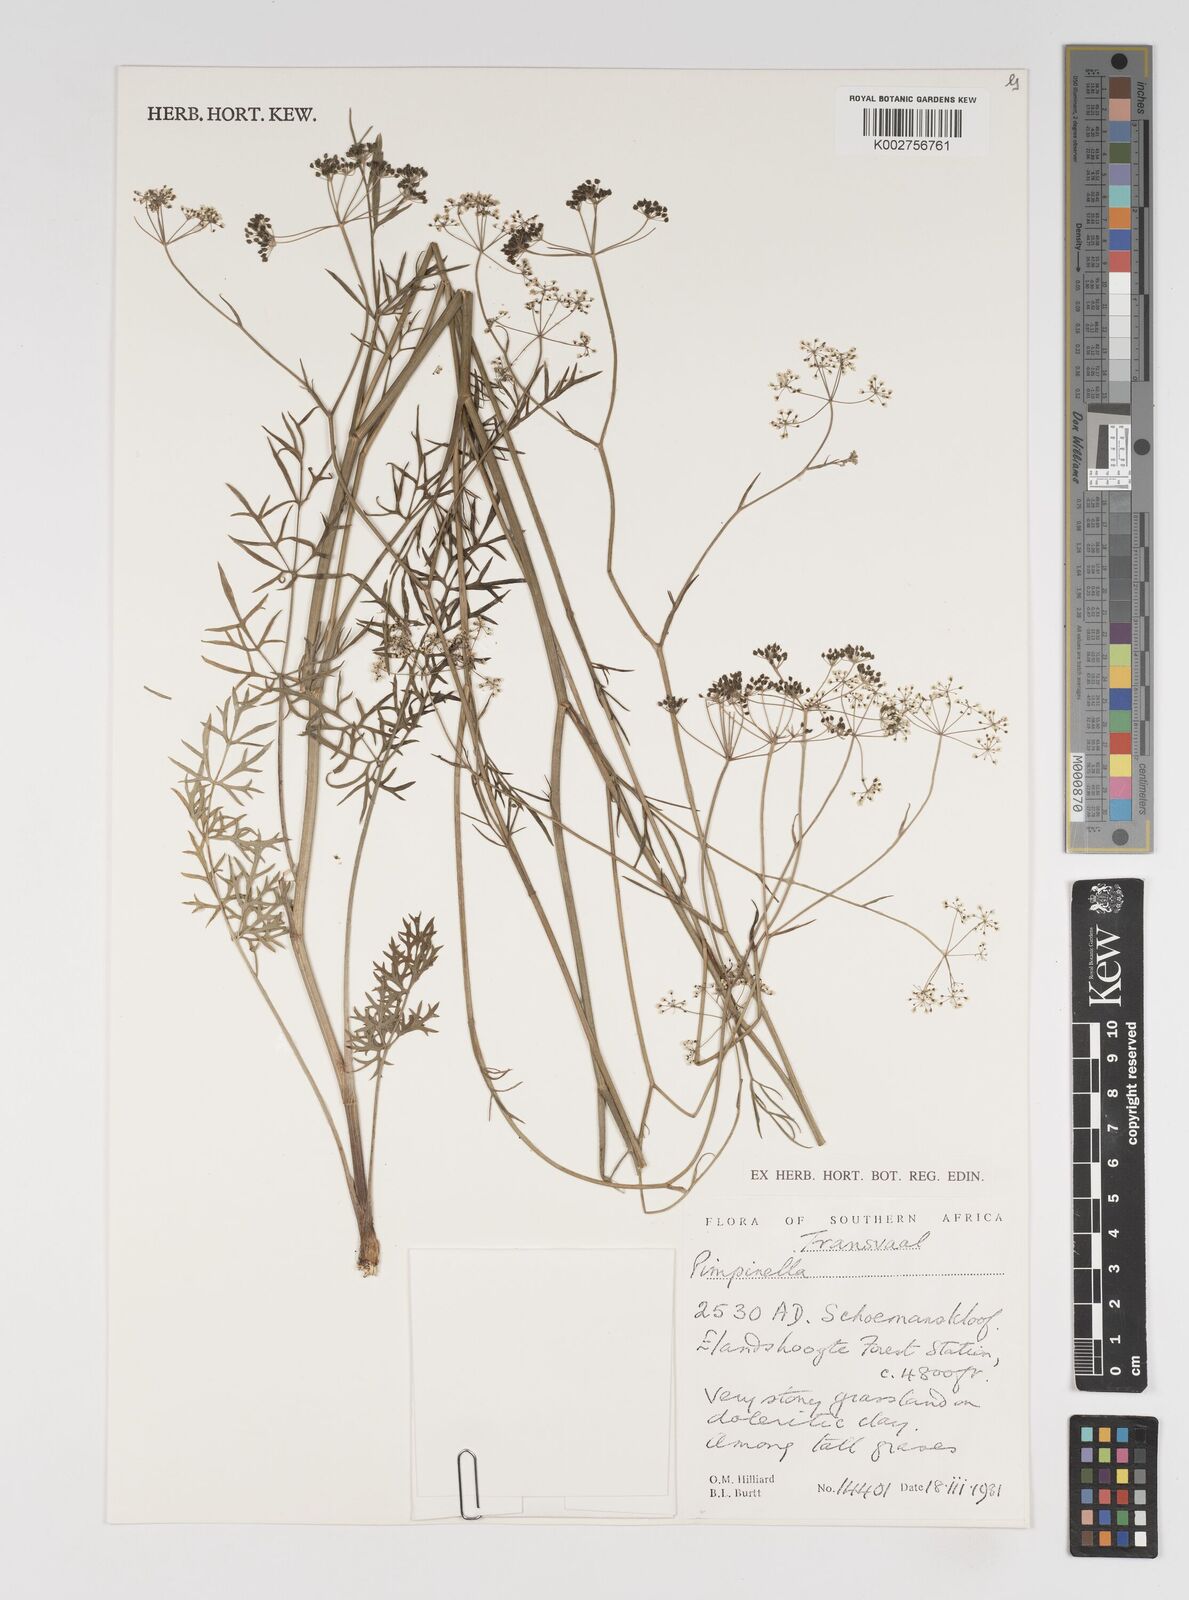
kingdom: Plantae
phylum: Tracheophyta
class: Magnoliopsida
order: Apiales
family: Apiaceae
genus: Pimpinella
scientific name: Pimpinella
